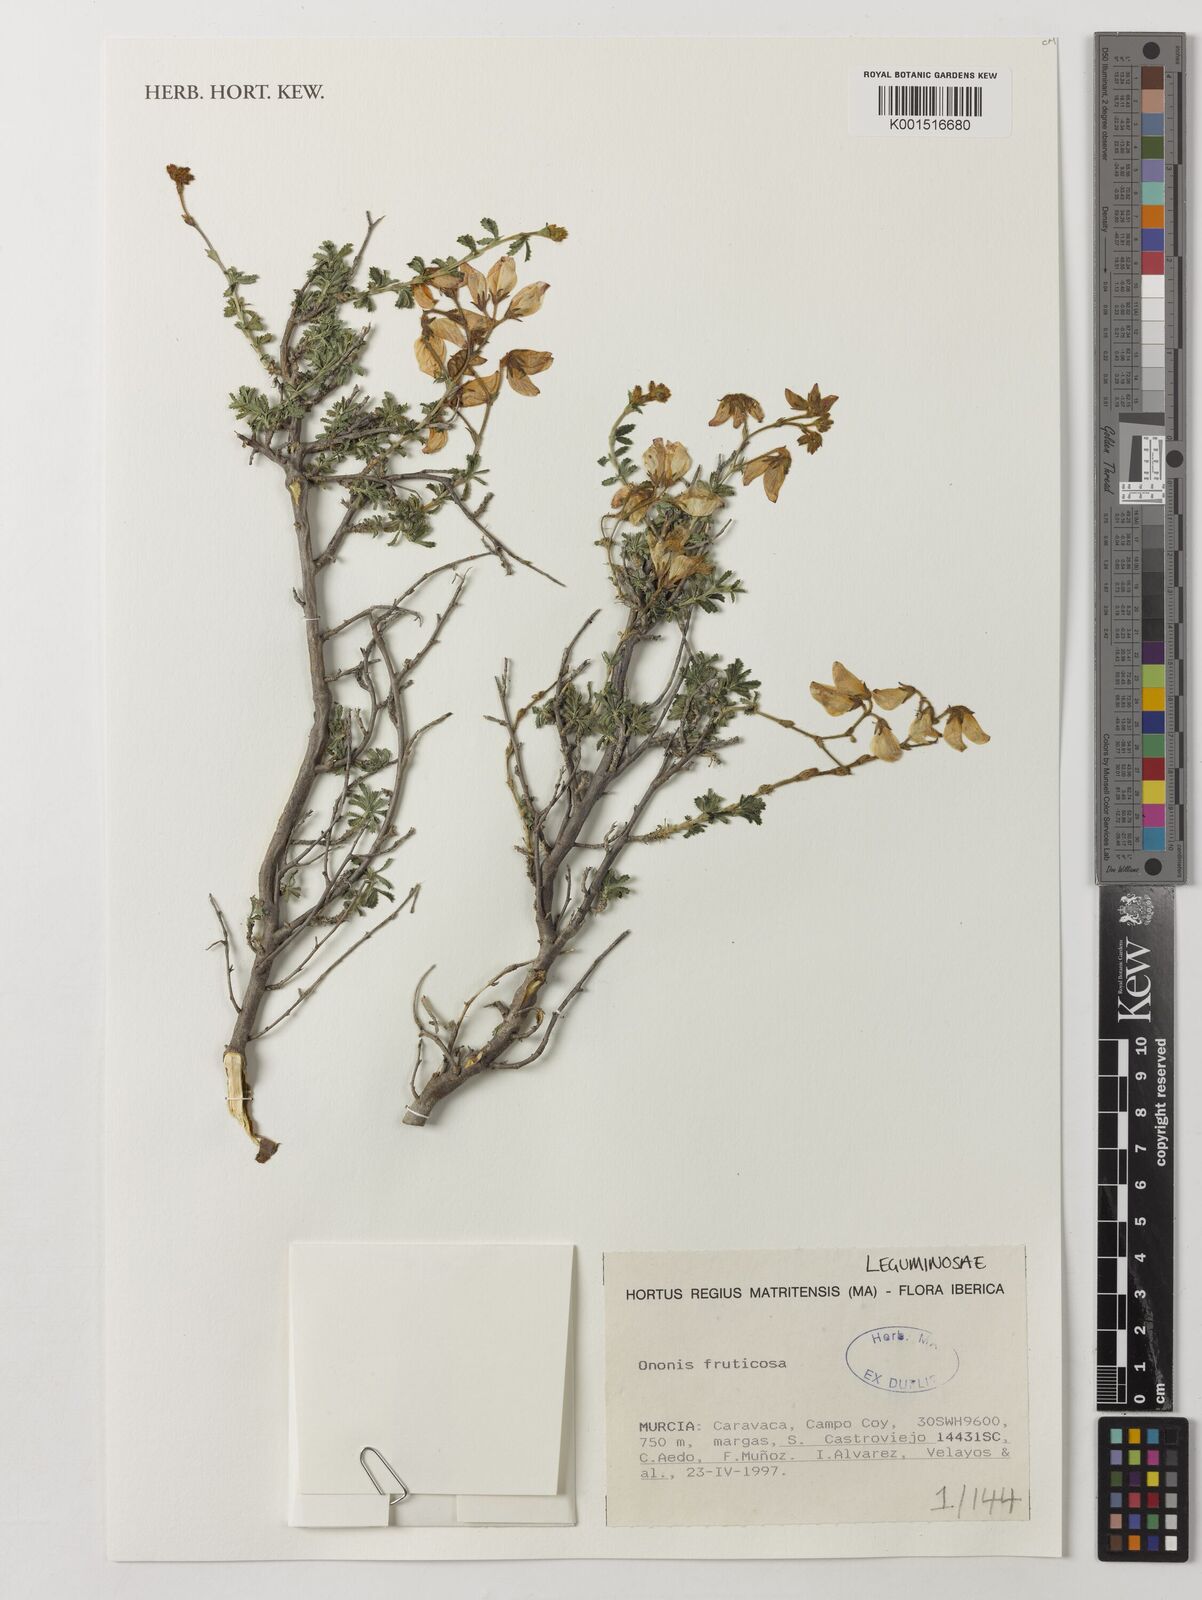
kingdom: Plantae
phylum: Tracheophyta
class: Magnoliopsida
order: Fabales
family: Fabaceae
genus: Ononis
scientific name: Ononis fruticosa
